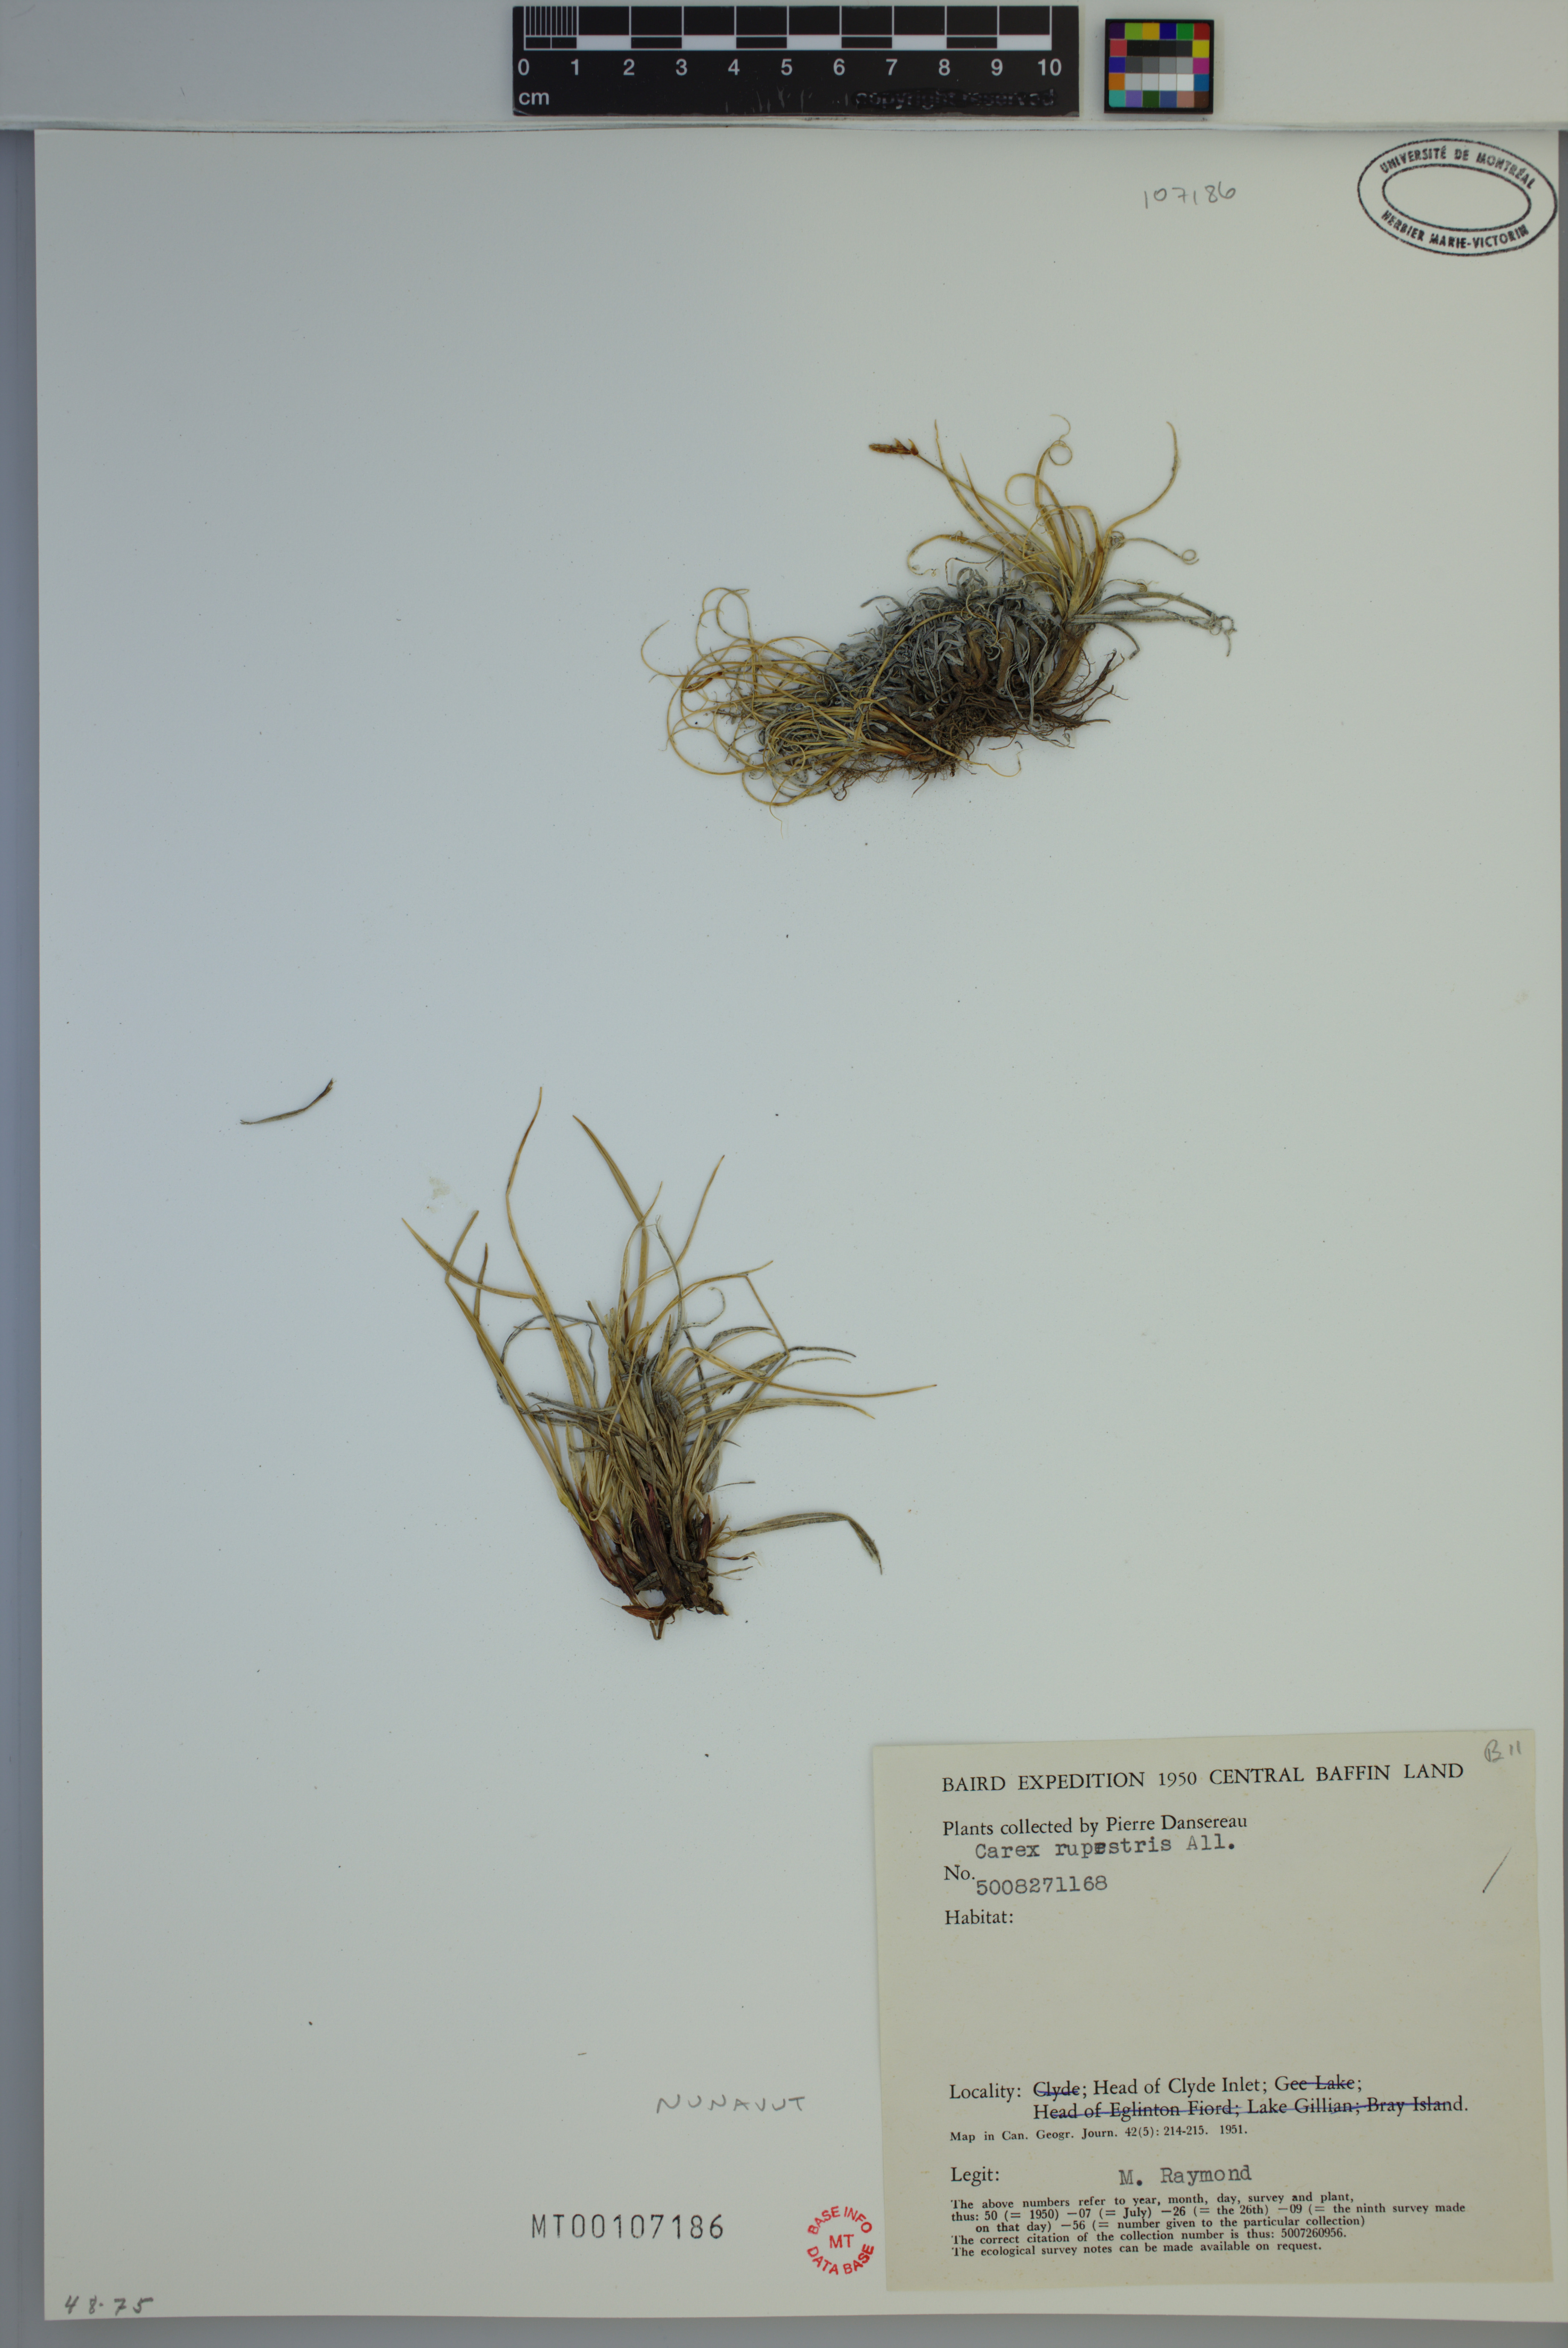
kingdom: Plantae
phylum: Tracheophyta
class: Liliopsida
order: Poales
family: Cyperaceae
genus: Carex
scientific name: Carex rupestris
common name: Rock sedge
